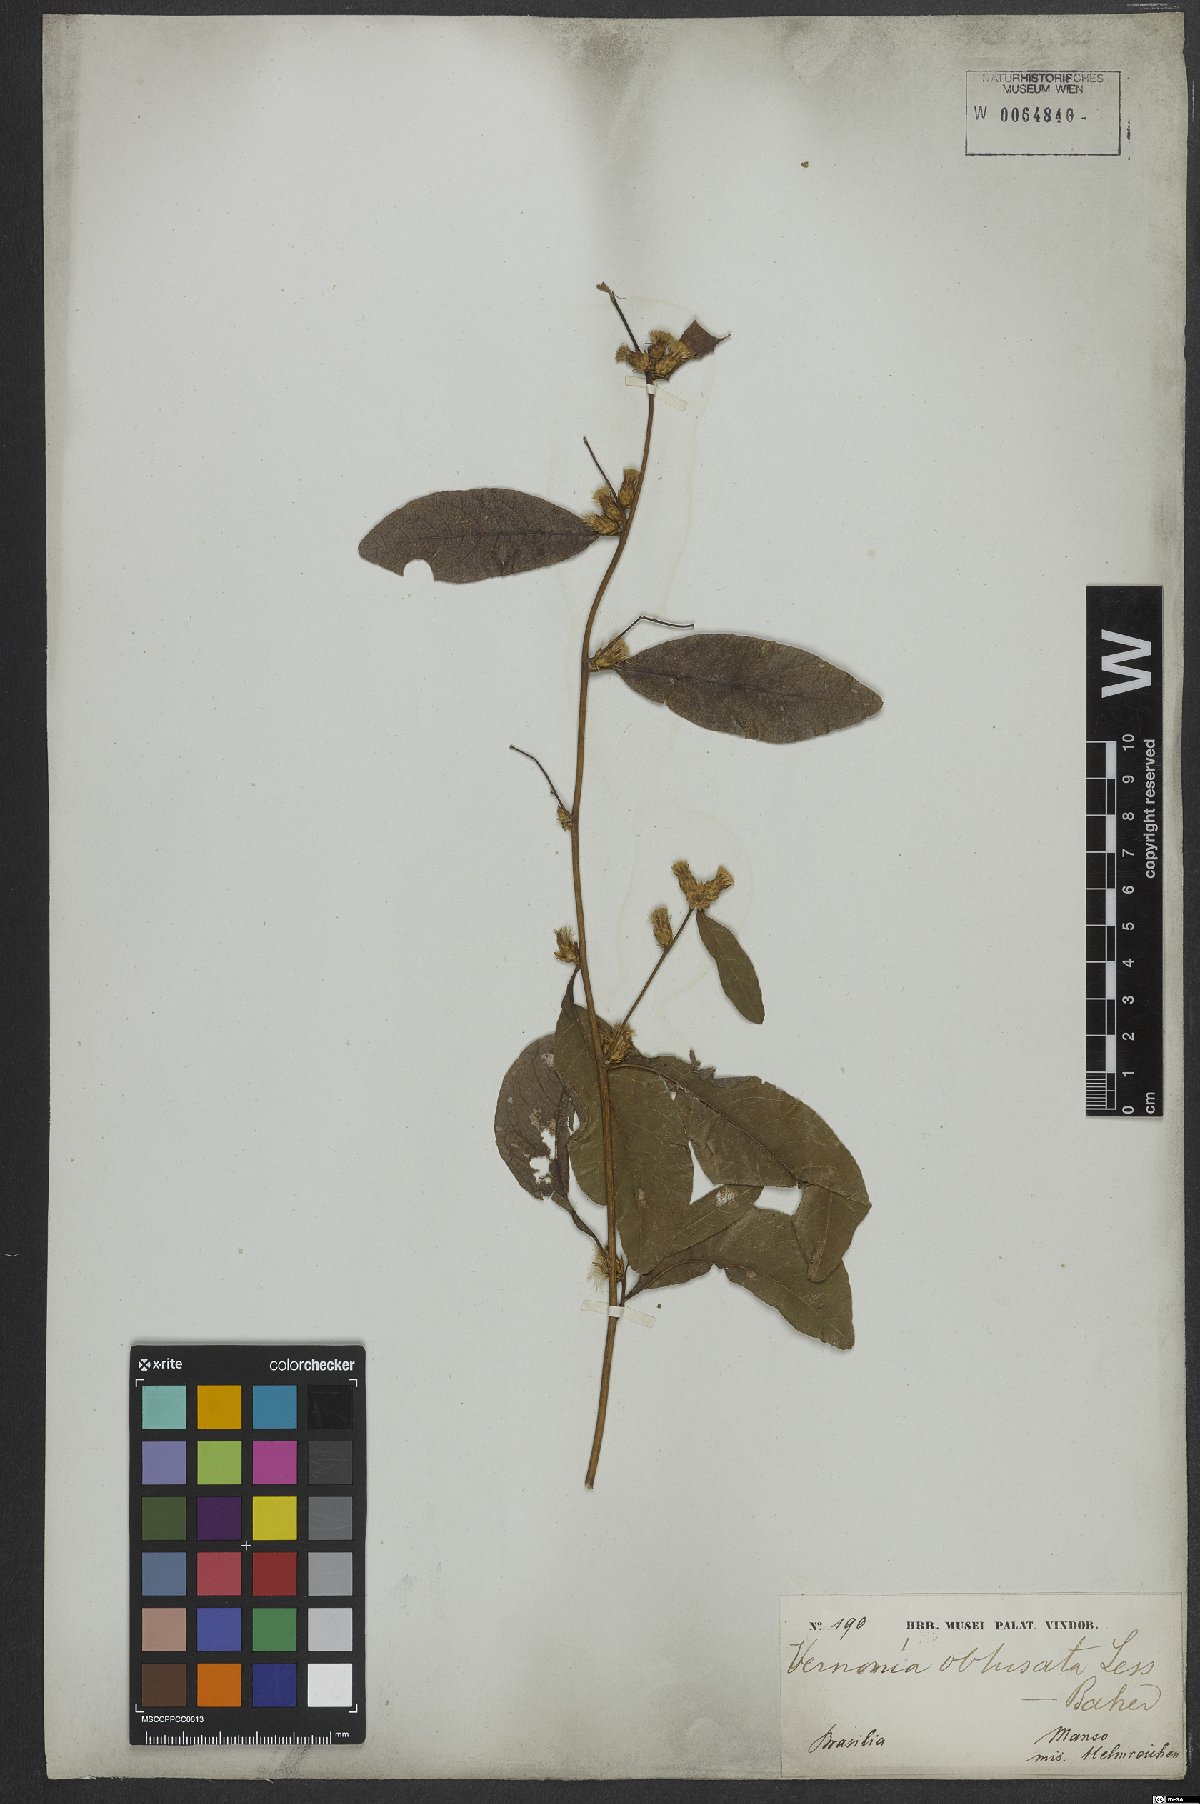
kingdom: Plantae
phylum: Tracheophyta
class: Magnoliopsida
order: Asterales
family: Asteraceae
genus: Lessingianthus
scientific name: Lessingianthus obtusatus
